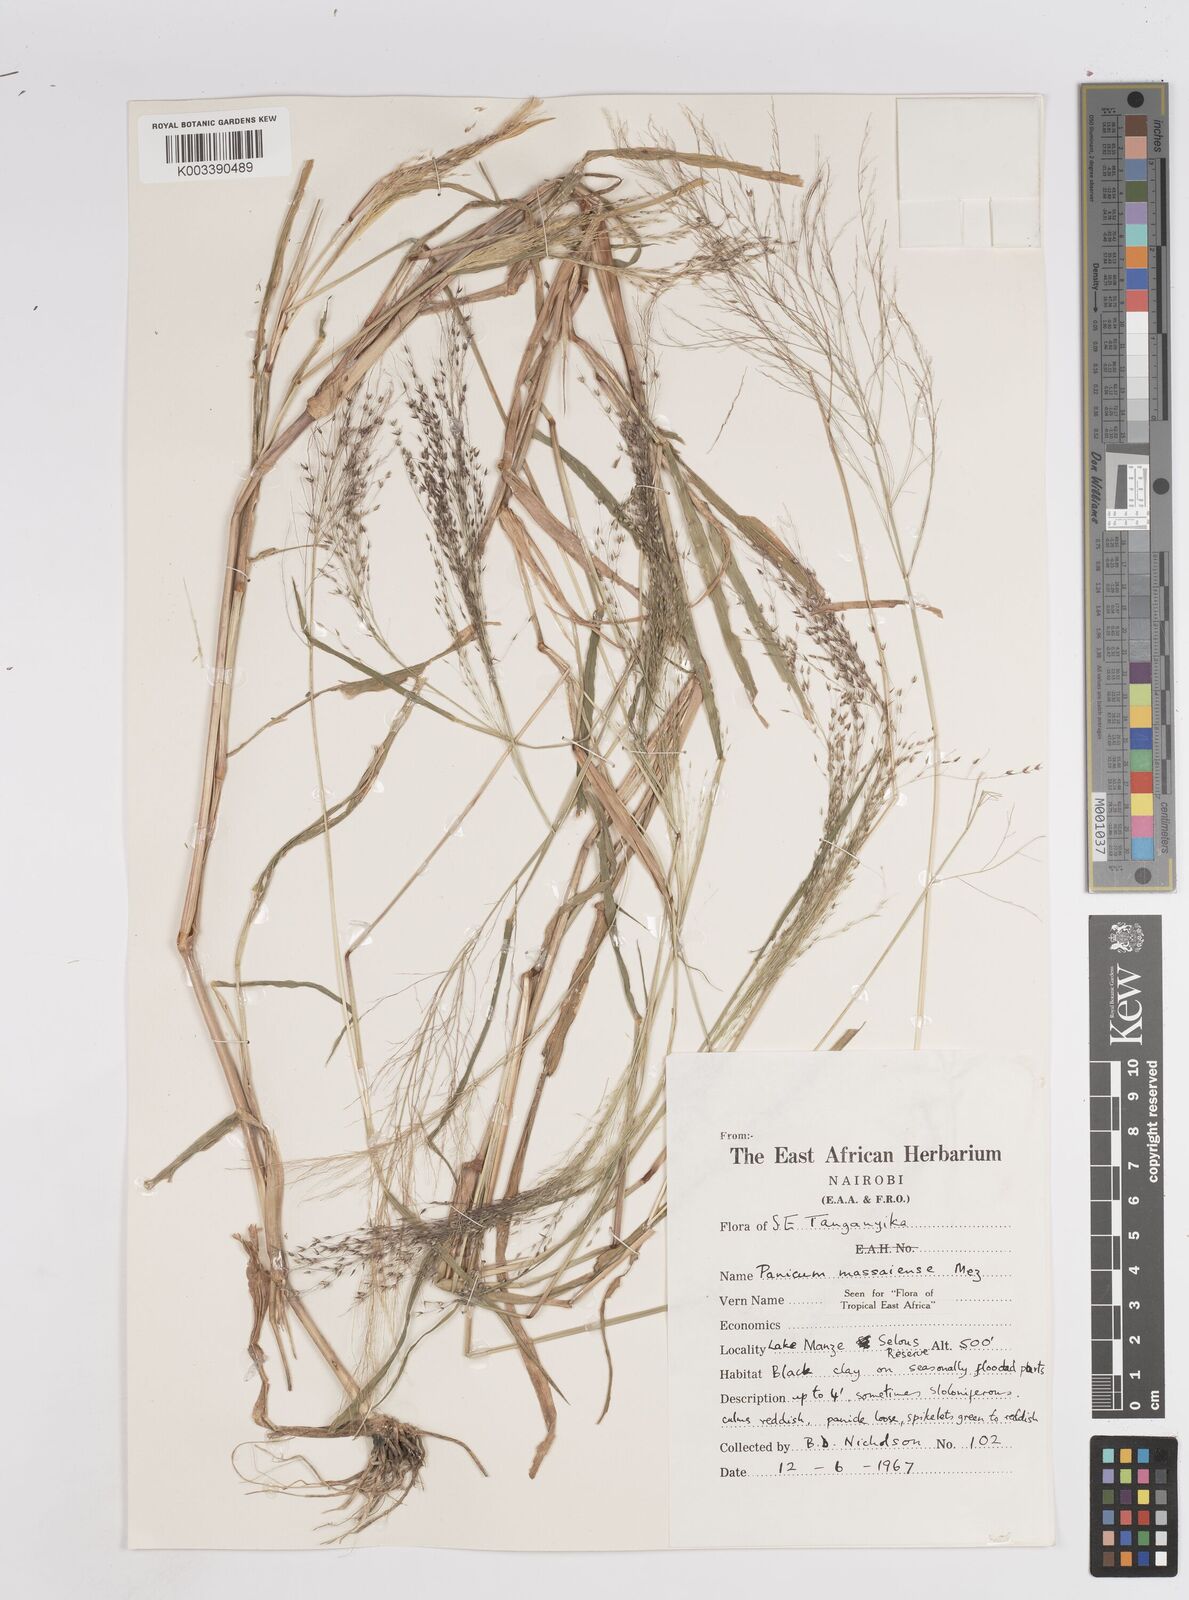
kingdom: Plantae
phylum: Tracheophyta
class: Liliopsida
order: Poales
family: Poaceae
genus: Panicum
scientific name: Panicum massaiense
